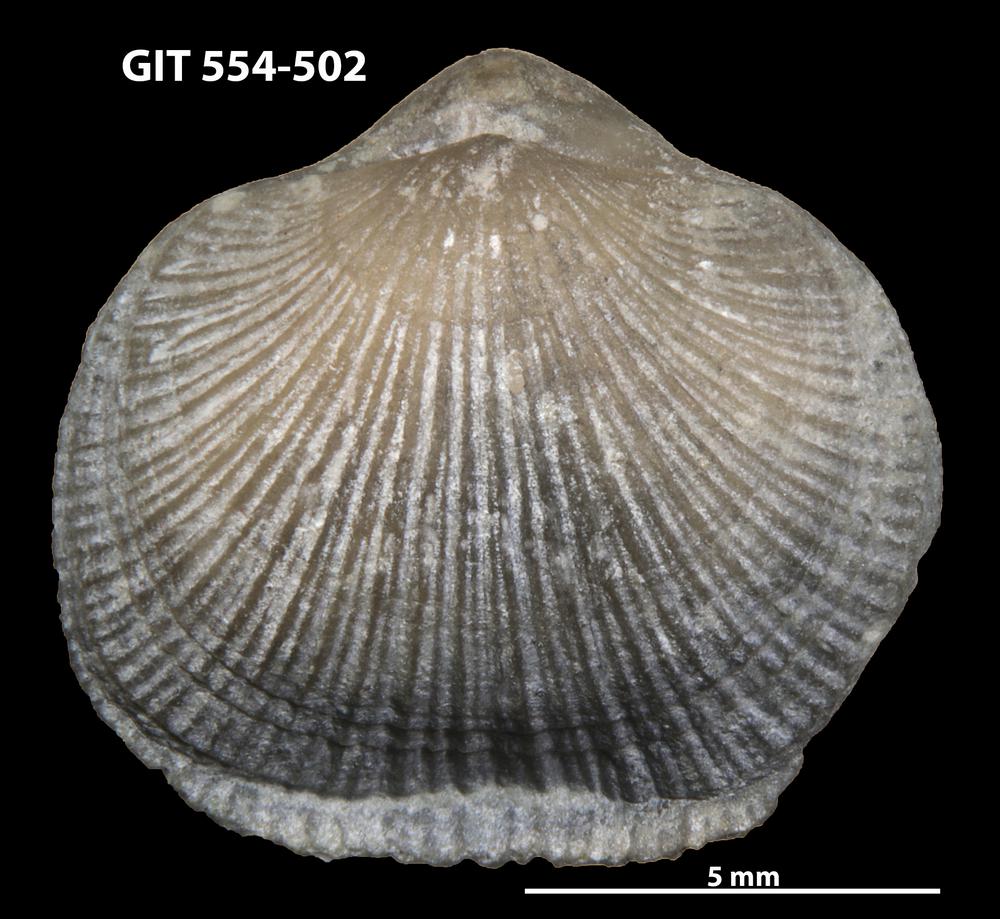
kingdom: Animalia
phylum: Brachiopoda
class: Rhynchonellata
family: Dalmanellidae
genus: Isorthis
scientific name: Isorthis Orthis crassa
